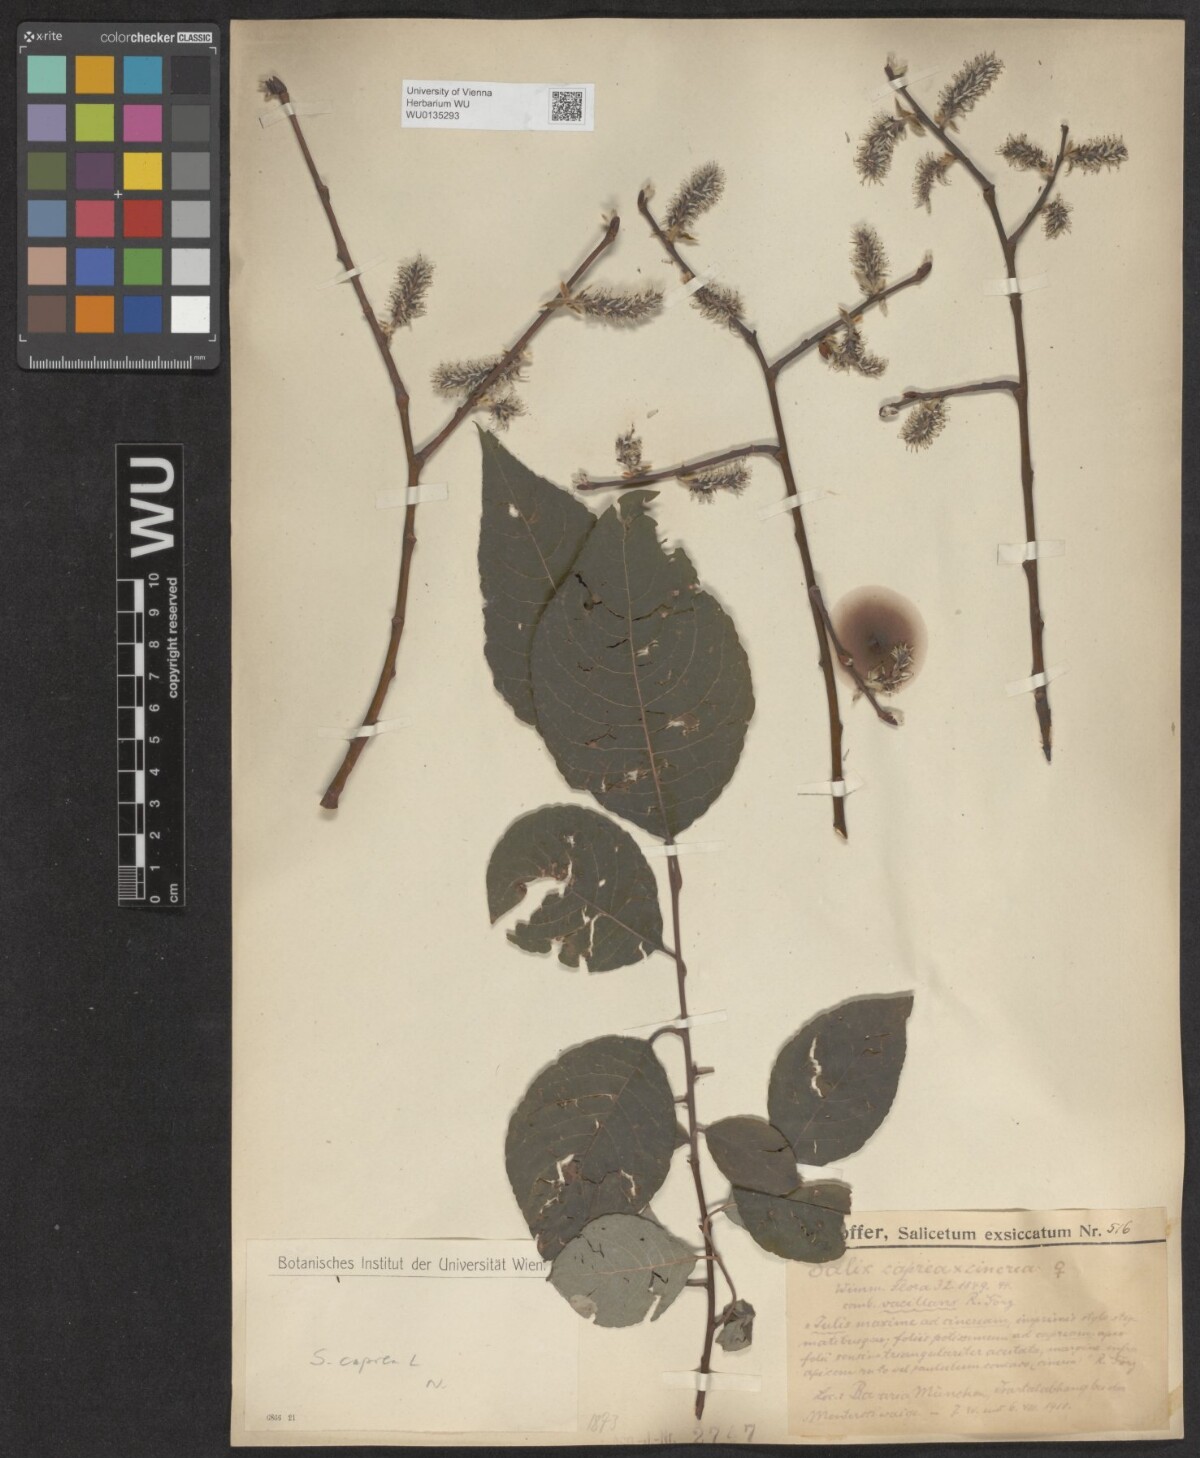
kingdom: Plantae
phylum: Tracheophyta
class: Magnoliopsida
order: Malpighiales
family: Salicaceae
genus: Salix
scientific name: Salix caprea
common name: Goat willow
